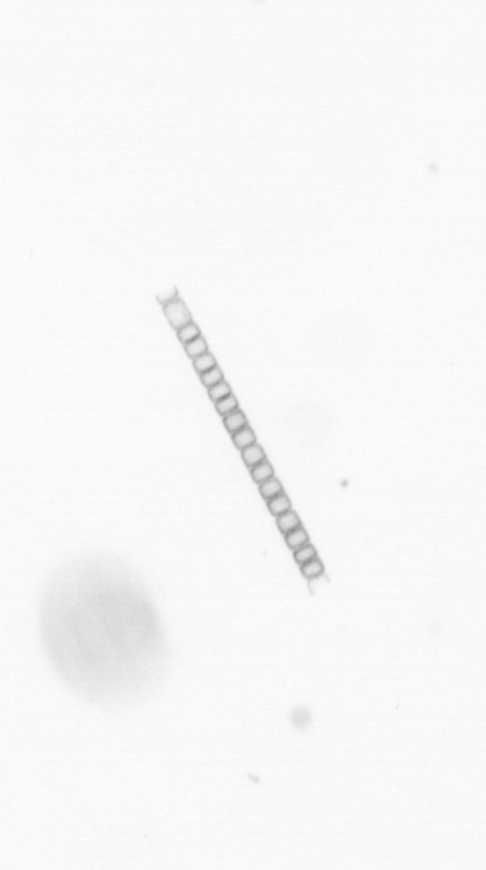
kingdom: Chromista
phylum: Ochrophyta
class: Bacillariophyceae
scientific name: Bacillariophyceae
